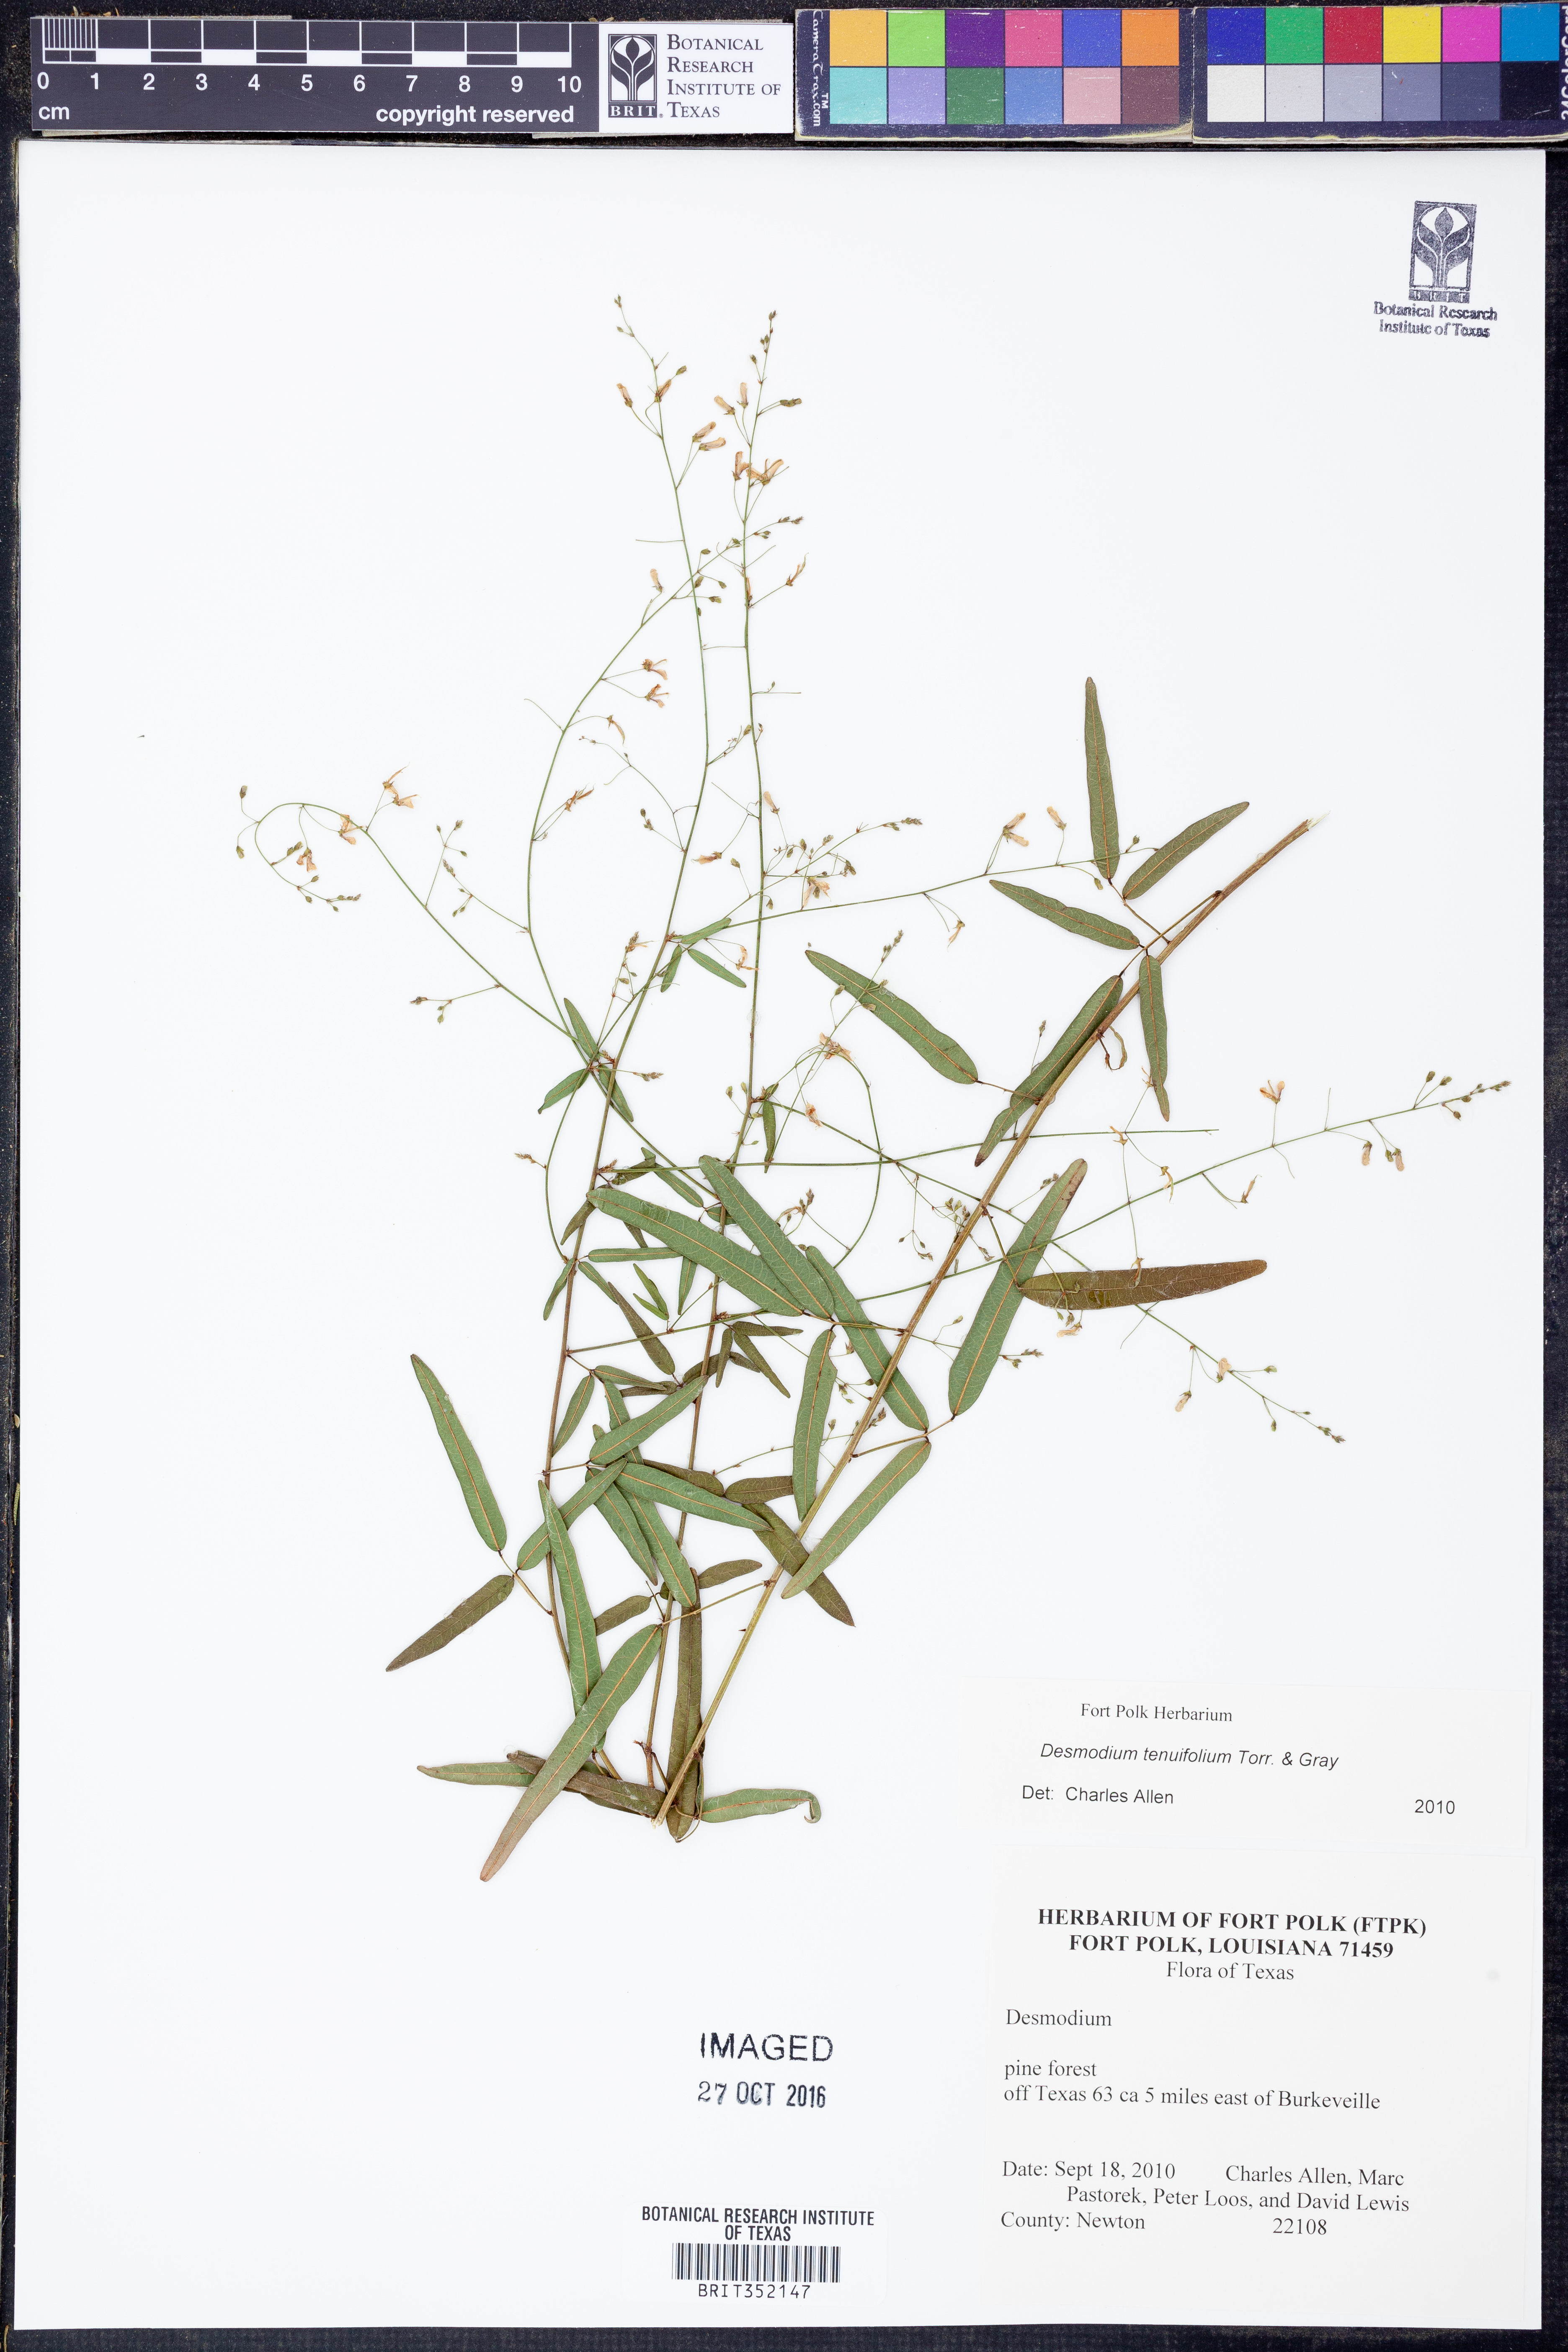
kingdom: Plantae
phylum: Tracheophyta
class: Magnoliopsida
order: Fabales
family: Fabaceae
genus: Desmodium
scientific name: Desmodium tenuifolium
